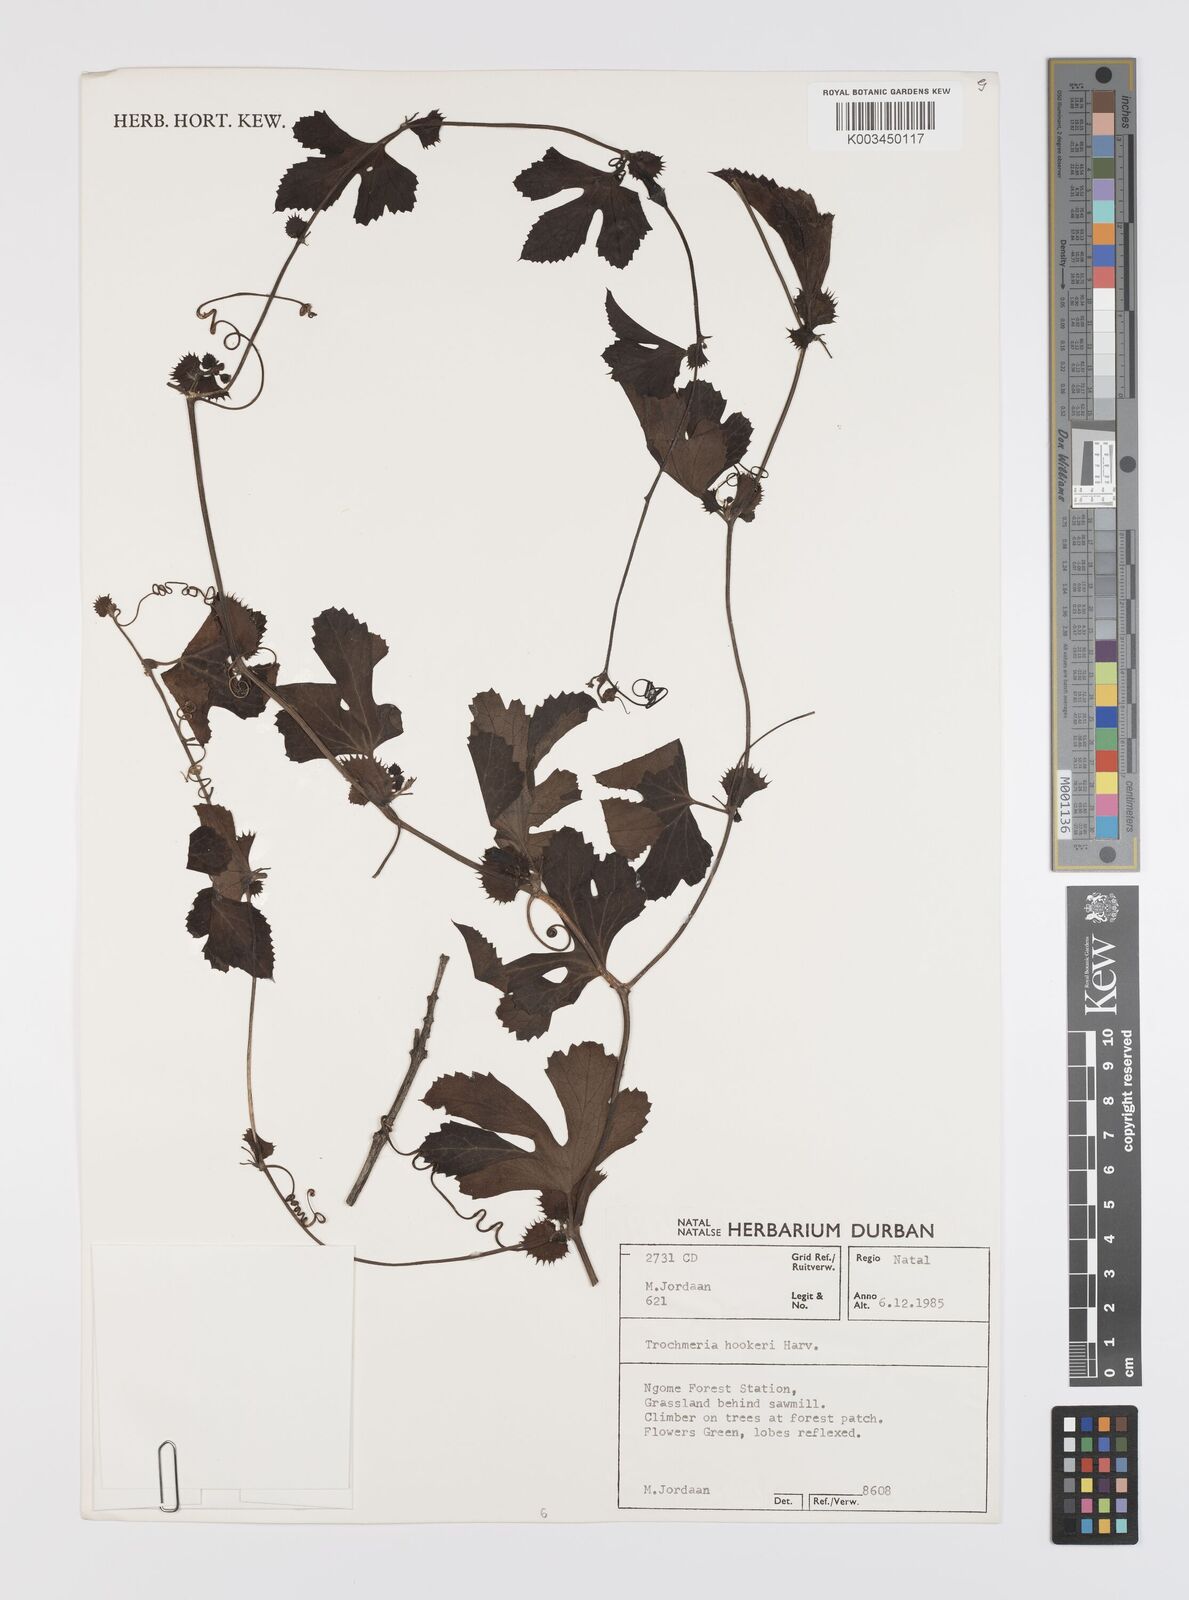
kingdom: Plantae
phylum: Tracheophyta
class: Magnoliopsida
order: Cucurbitales
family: Cucurbitaceae
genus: Trochomeria
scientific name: Trochomeria hookeri
